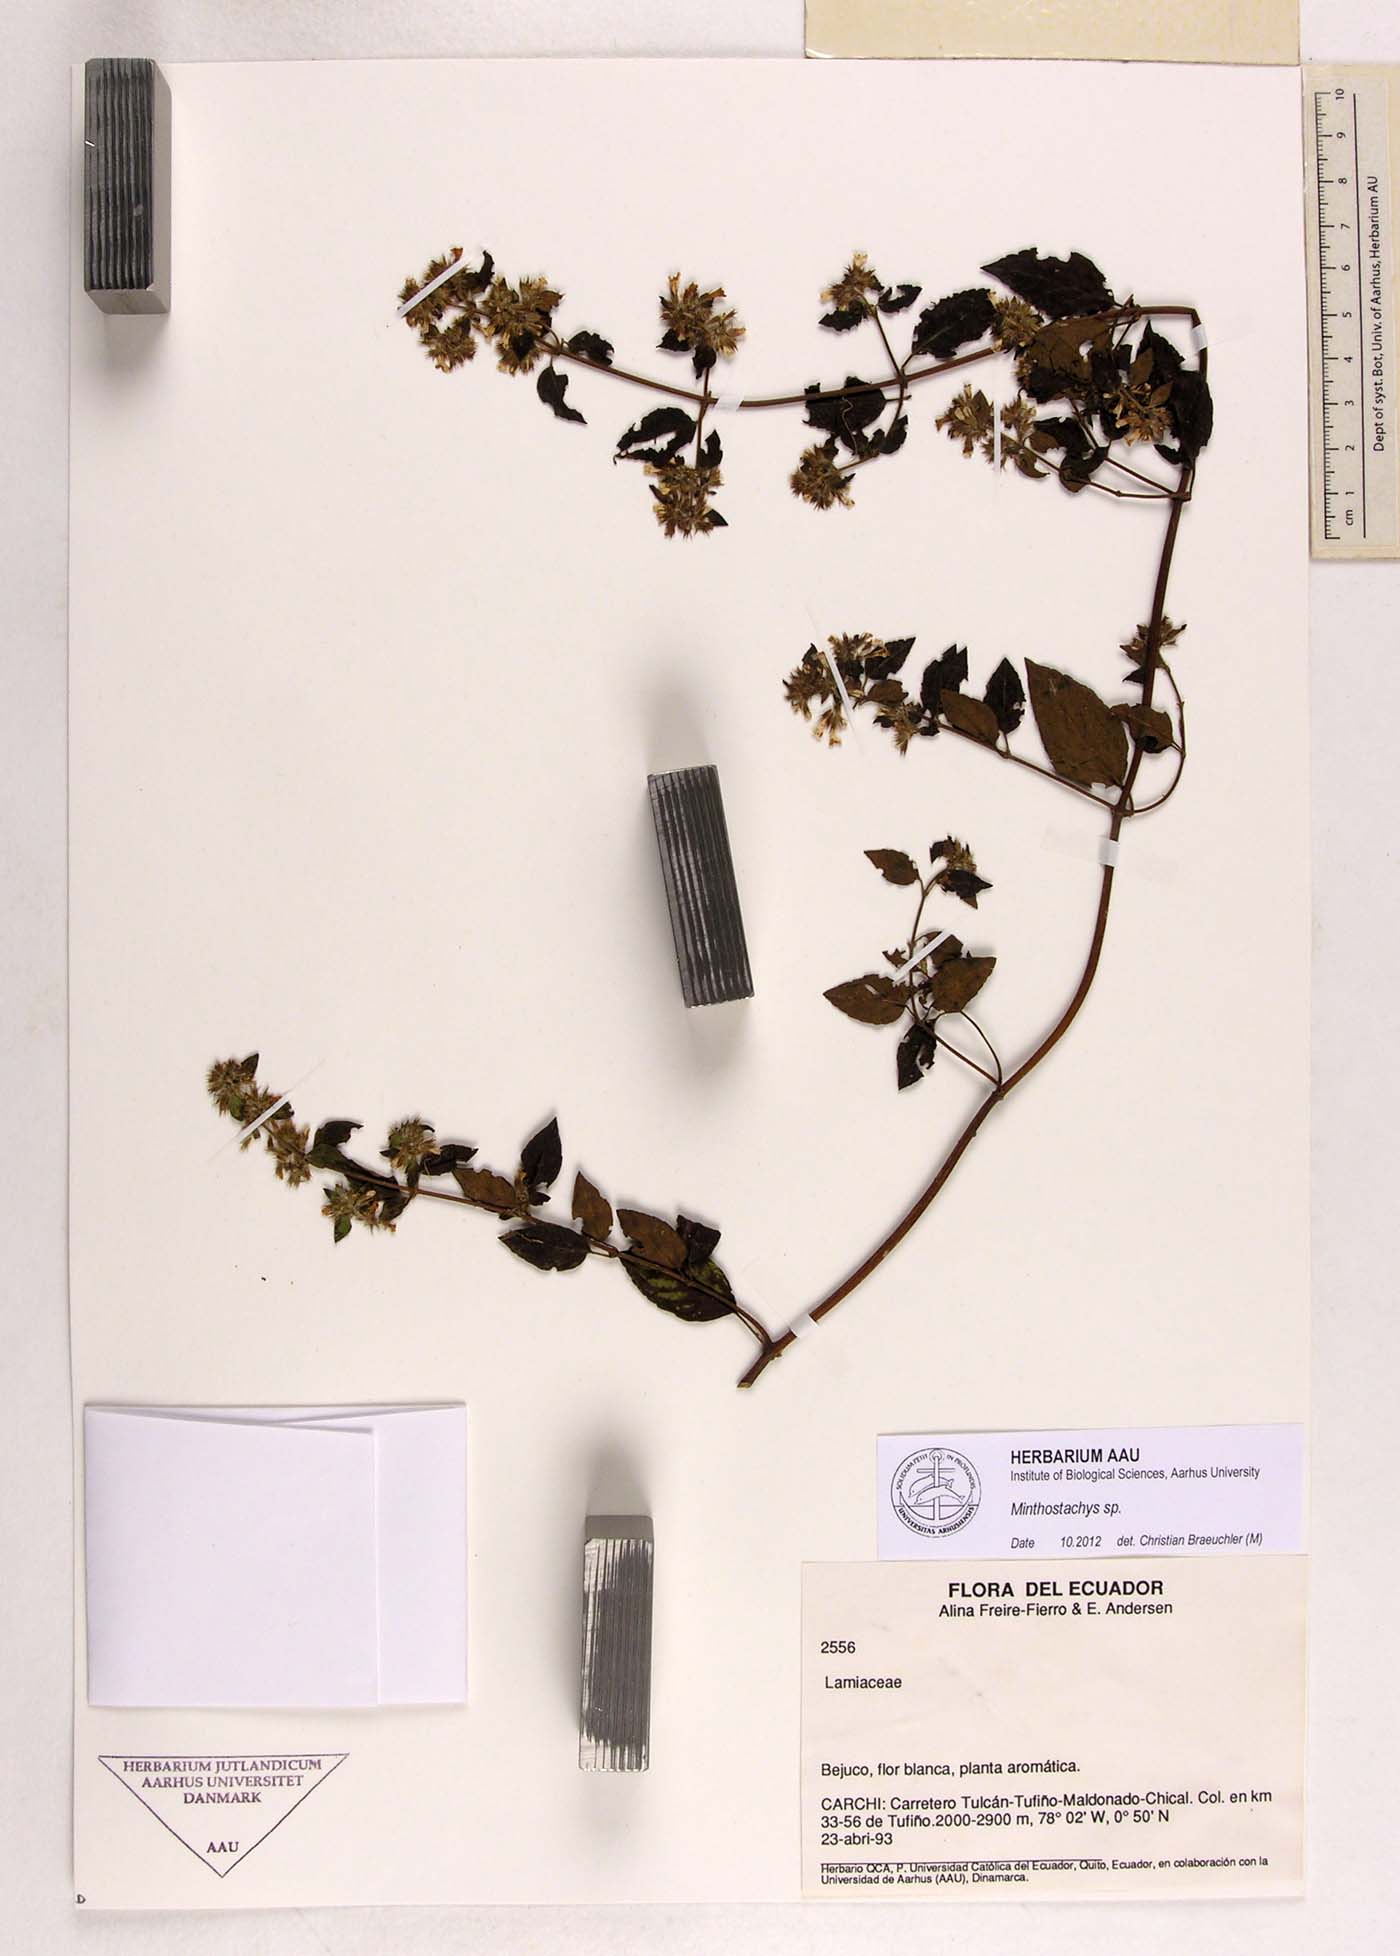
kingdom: Plantae
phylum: Tracheophyta
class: Magnoliopsida
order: Lamiales
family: Lamiaceae
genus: Minthostachys
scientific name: Minthostachys
